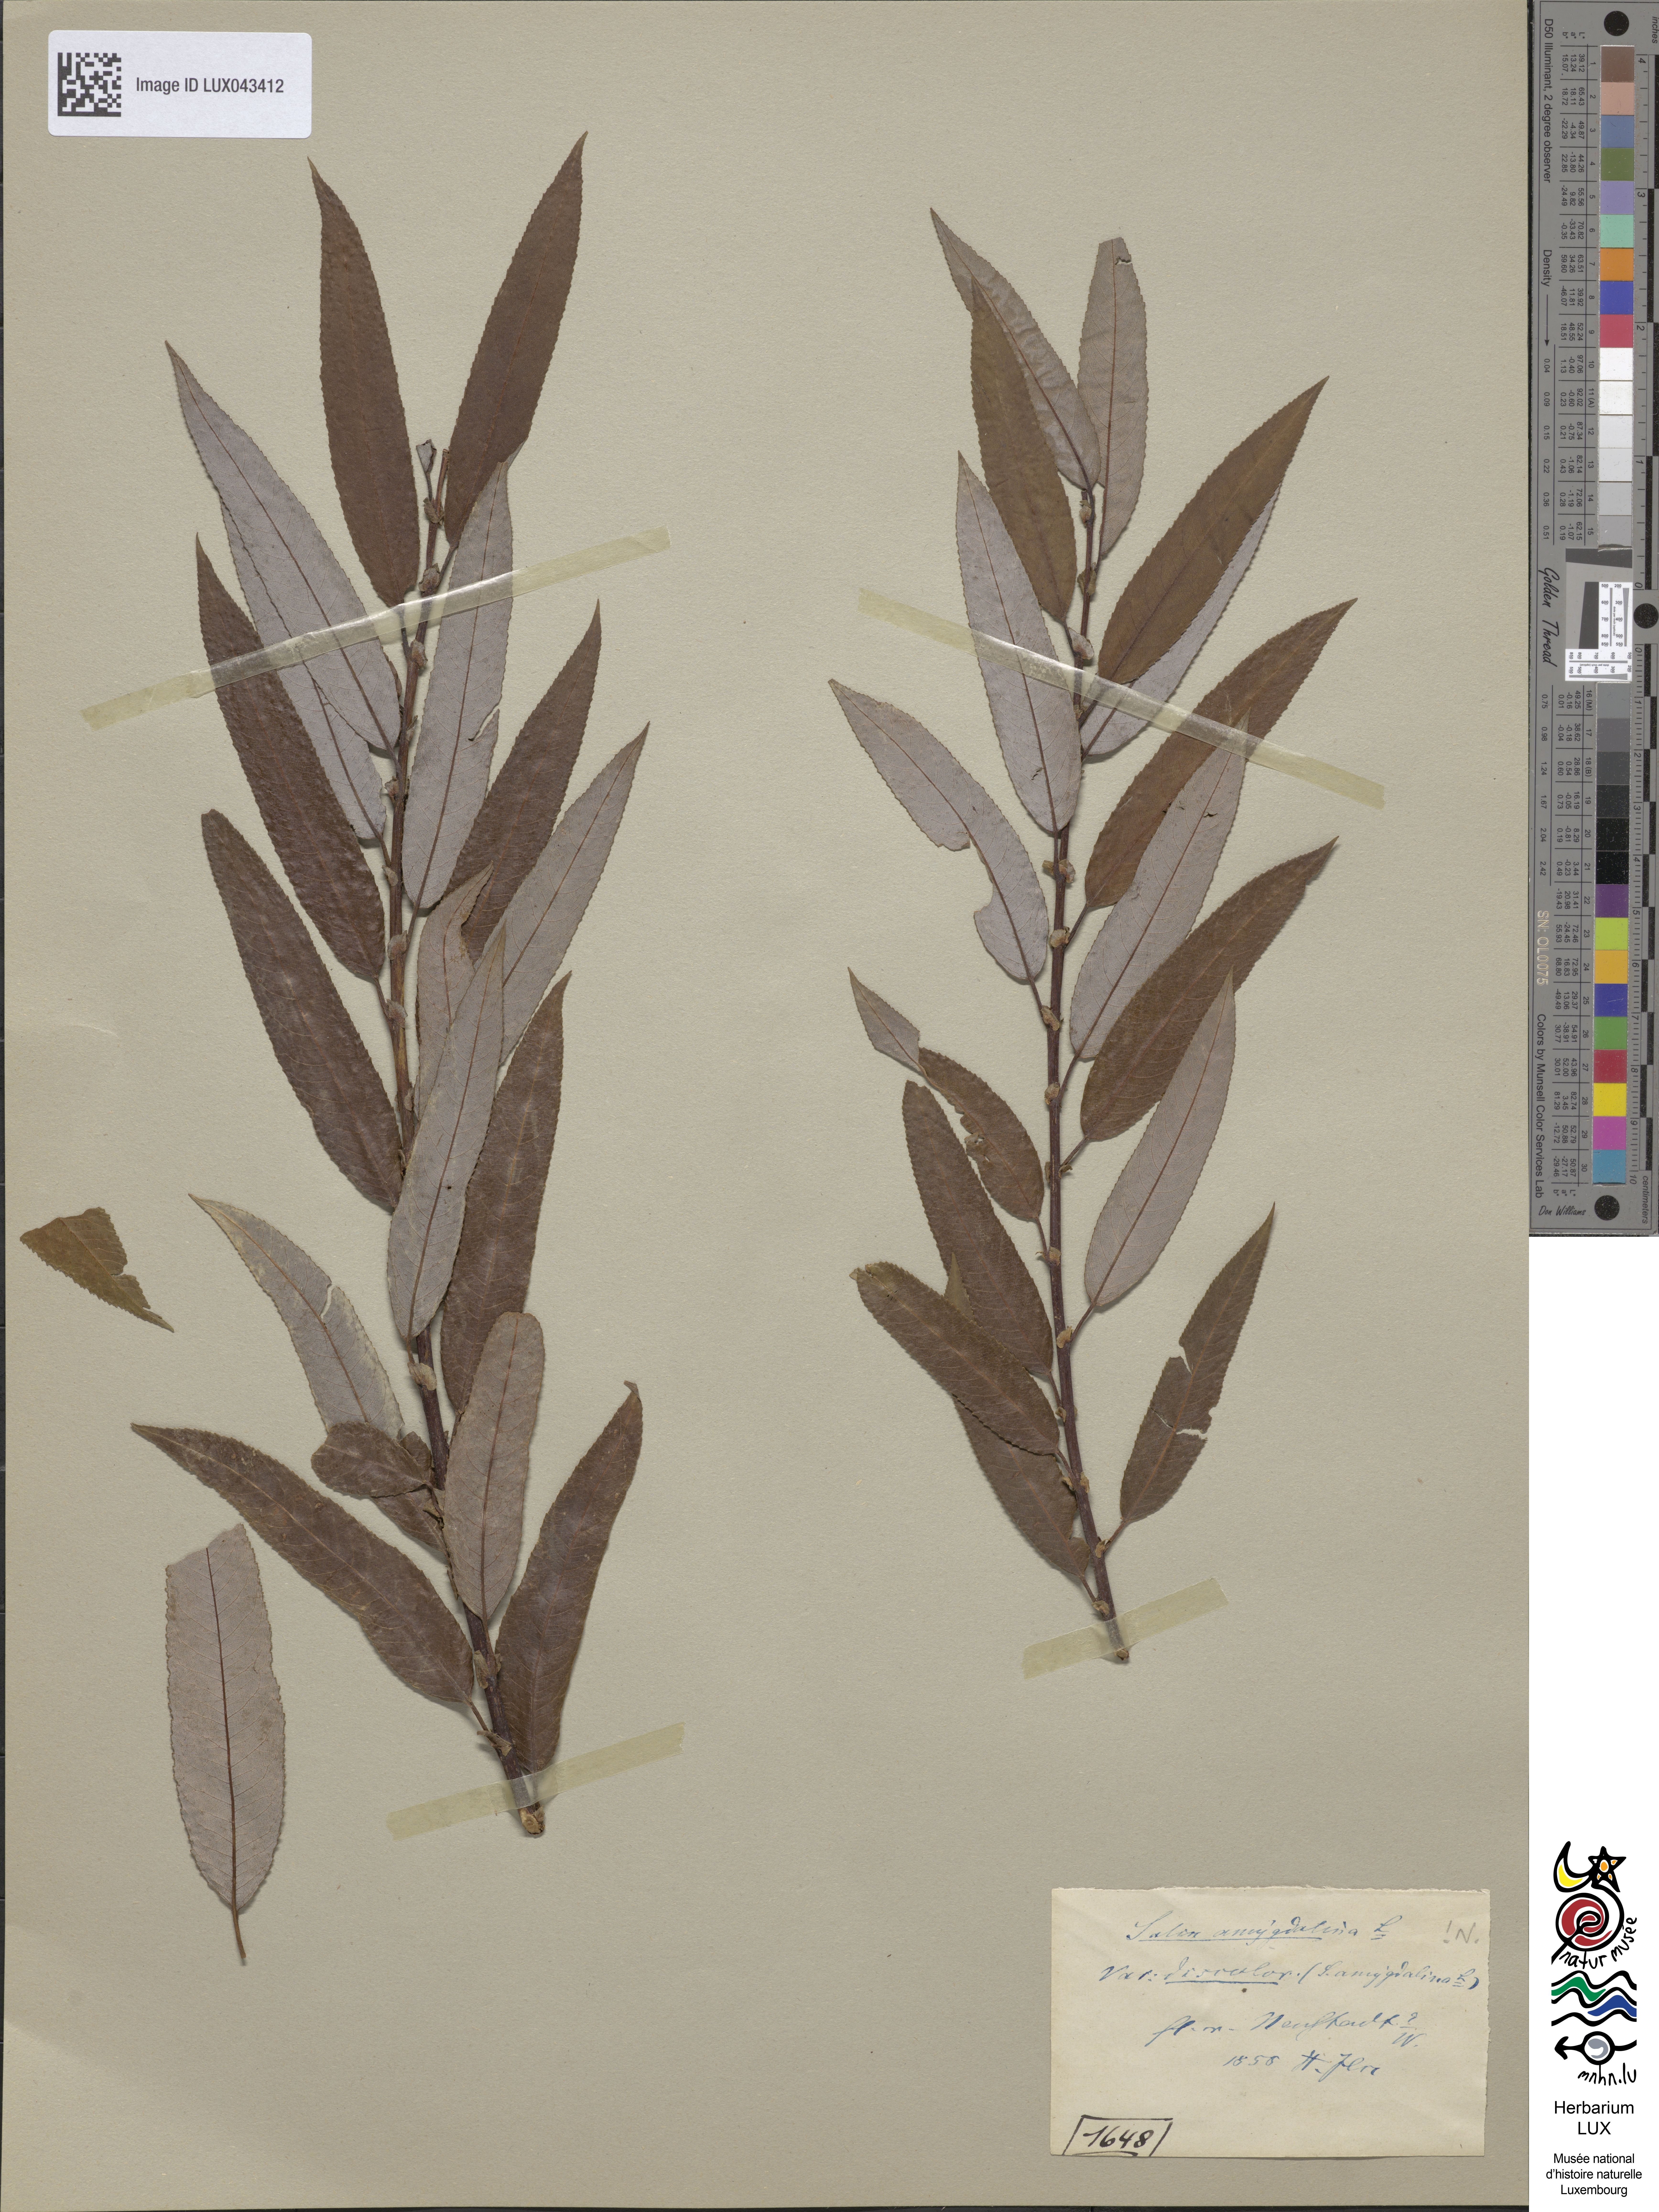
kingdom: Plantae
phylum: Tracheophyta
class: Magnoliopsida
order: Malpighiales
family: Salicaceae
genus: Salix
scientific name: Salix triandra
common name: Almond willow
